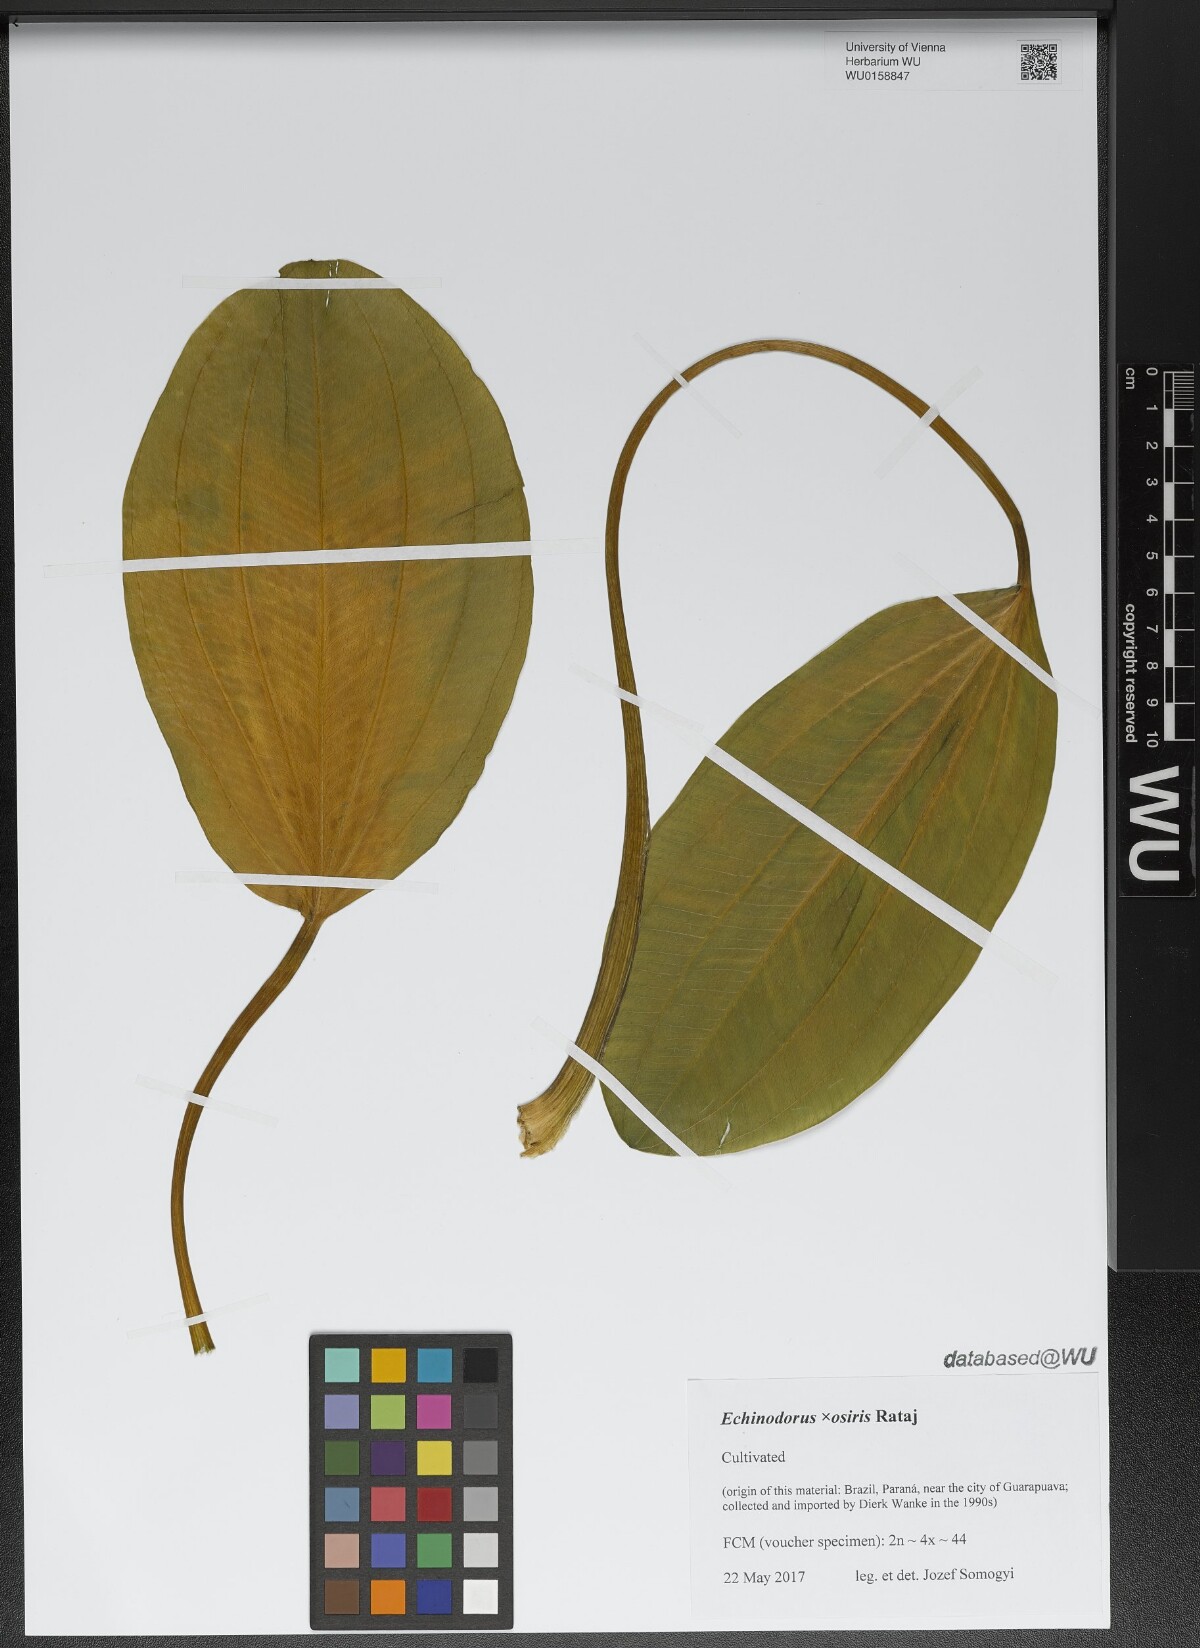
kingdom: Plantae
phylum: Tracheophyta
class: Liliopsida
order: Alismatales
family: Alismataceae
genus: Aquarius
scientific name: Aquarius uruguayensis
